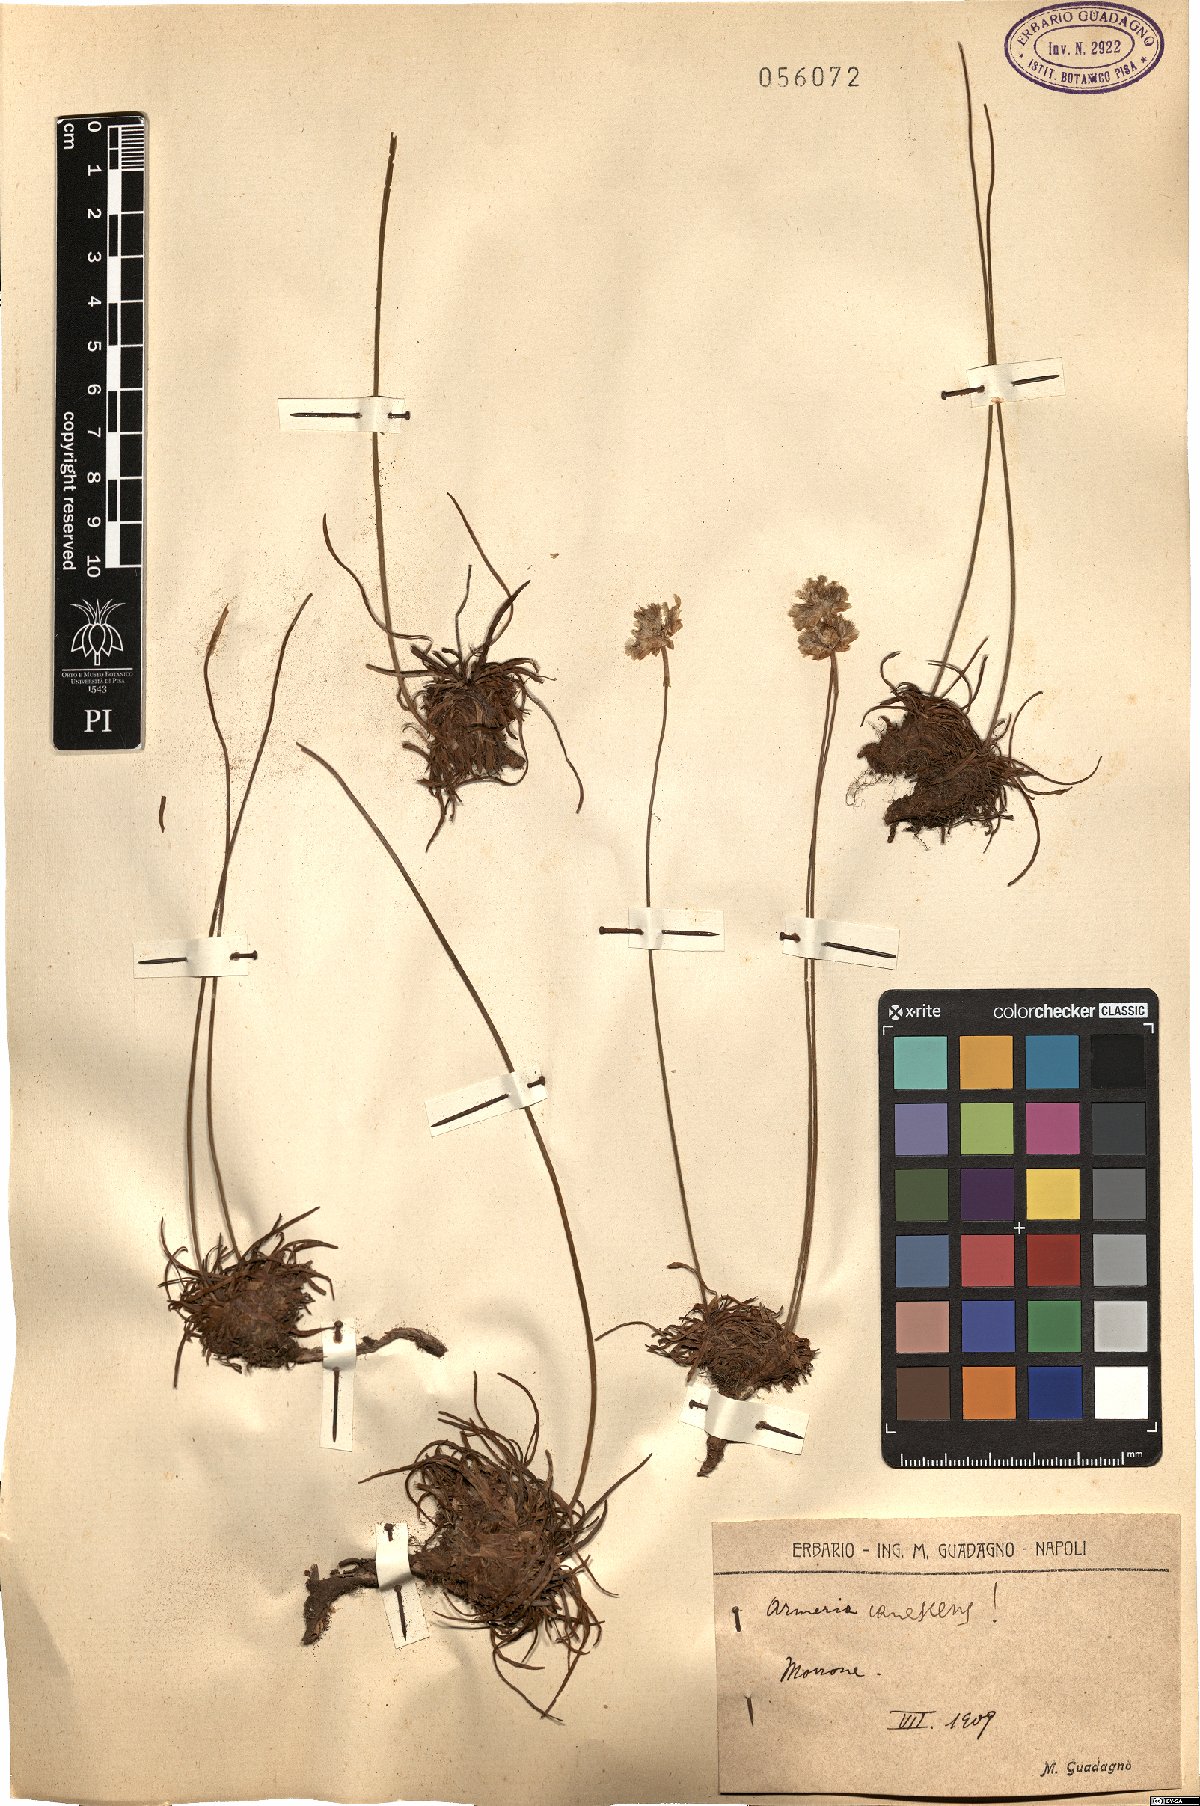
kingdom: Plantae
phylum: Tracheophyta
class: Magnoliopsida
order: Caryophyllales
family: Plumbaginaceae
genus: Armeria
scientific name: Armeria canescens
